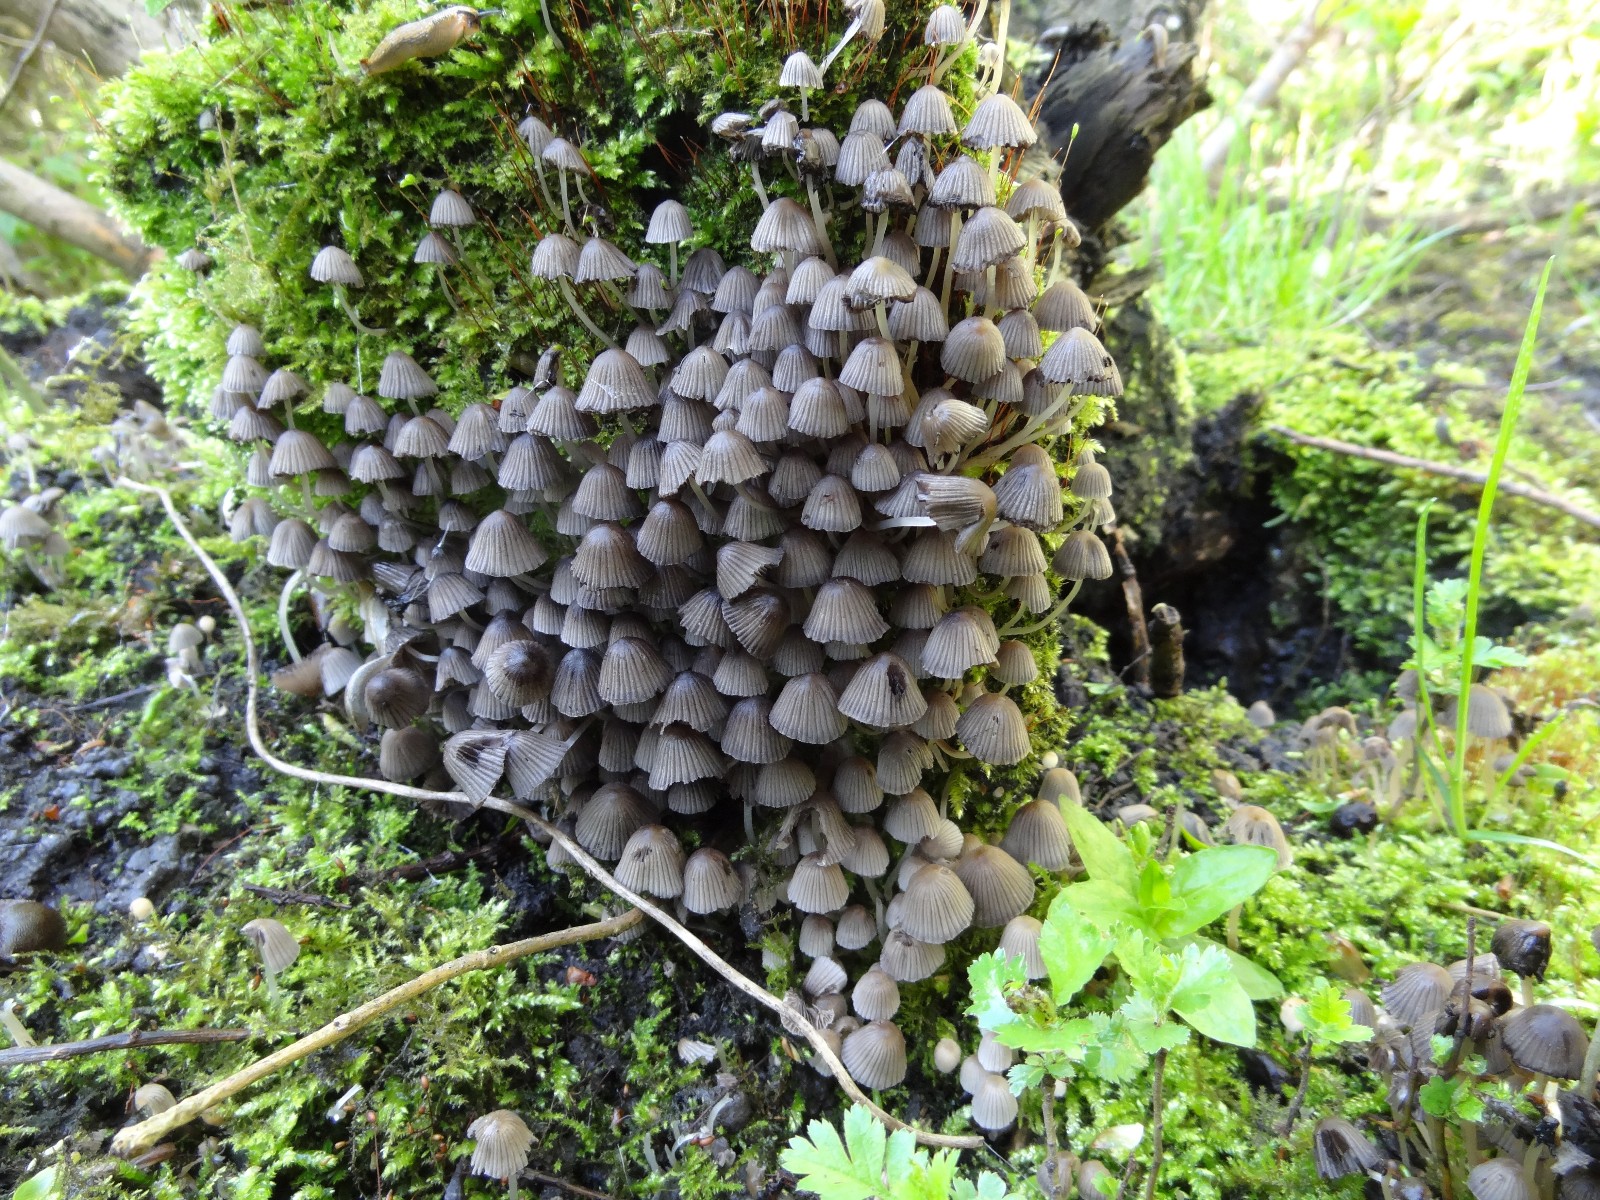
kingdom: Fungi
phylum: Basidiomycota
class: Agaricomycetes
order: Agaricales
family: Psathyrellaceae
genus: Coprinellus
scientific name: Coprinellus disseminatus
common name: bredsået blækhat
